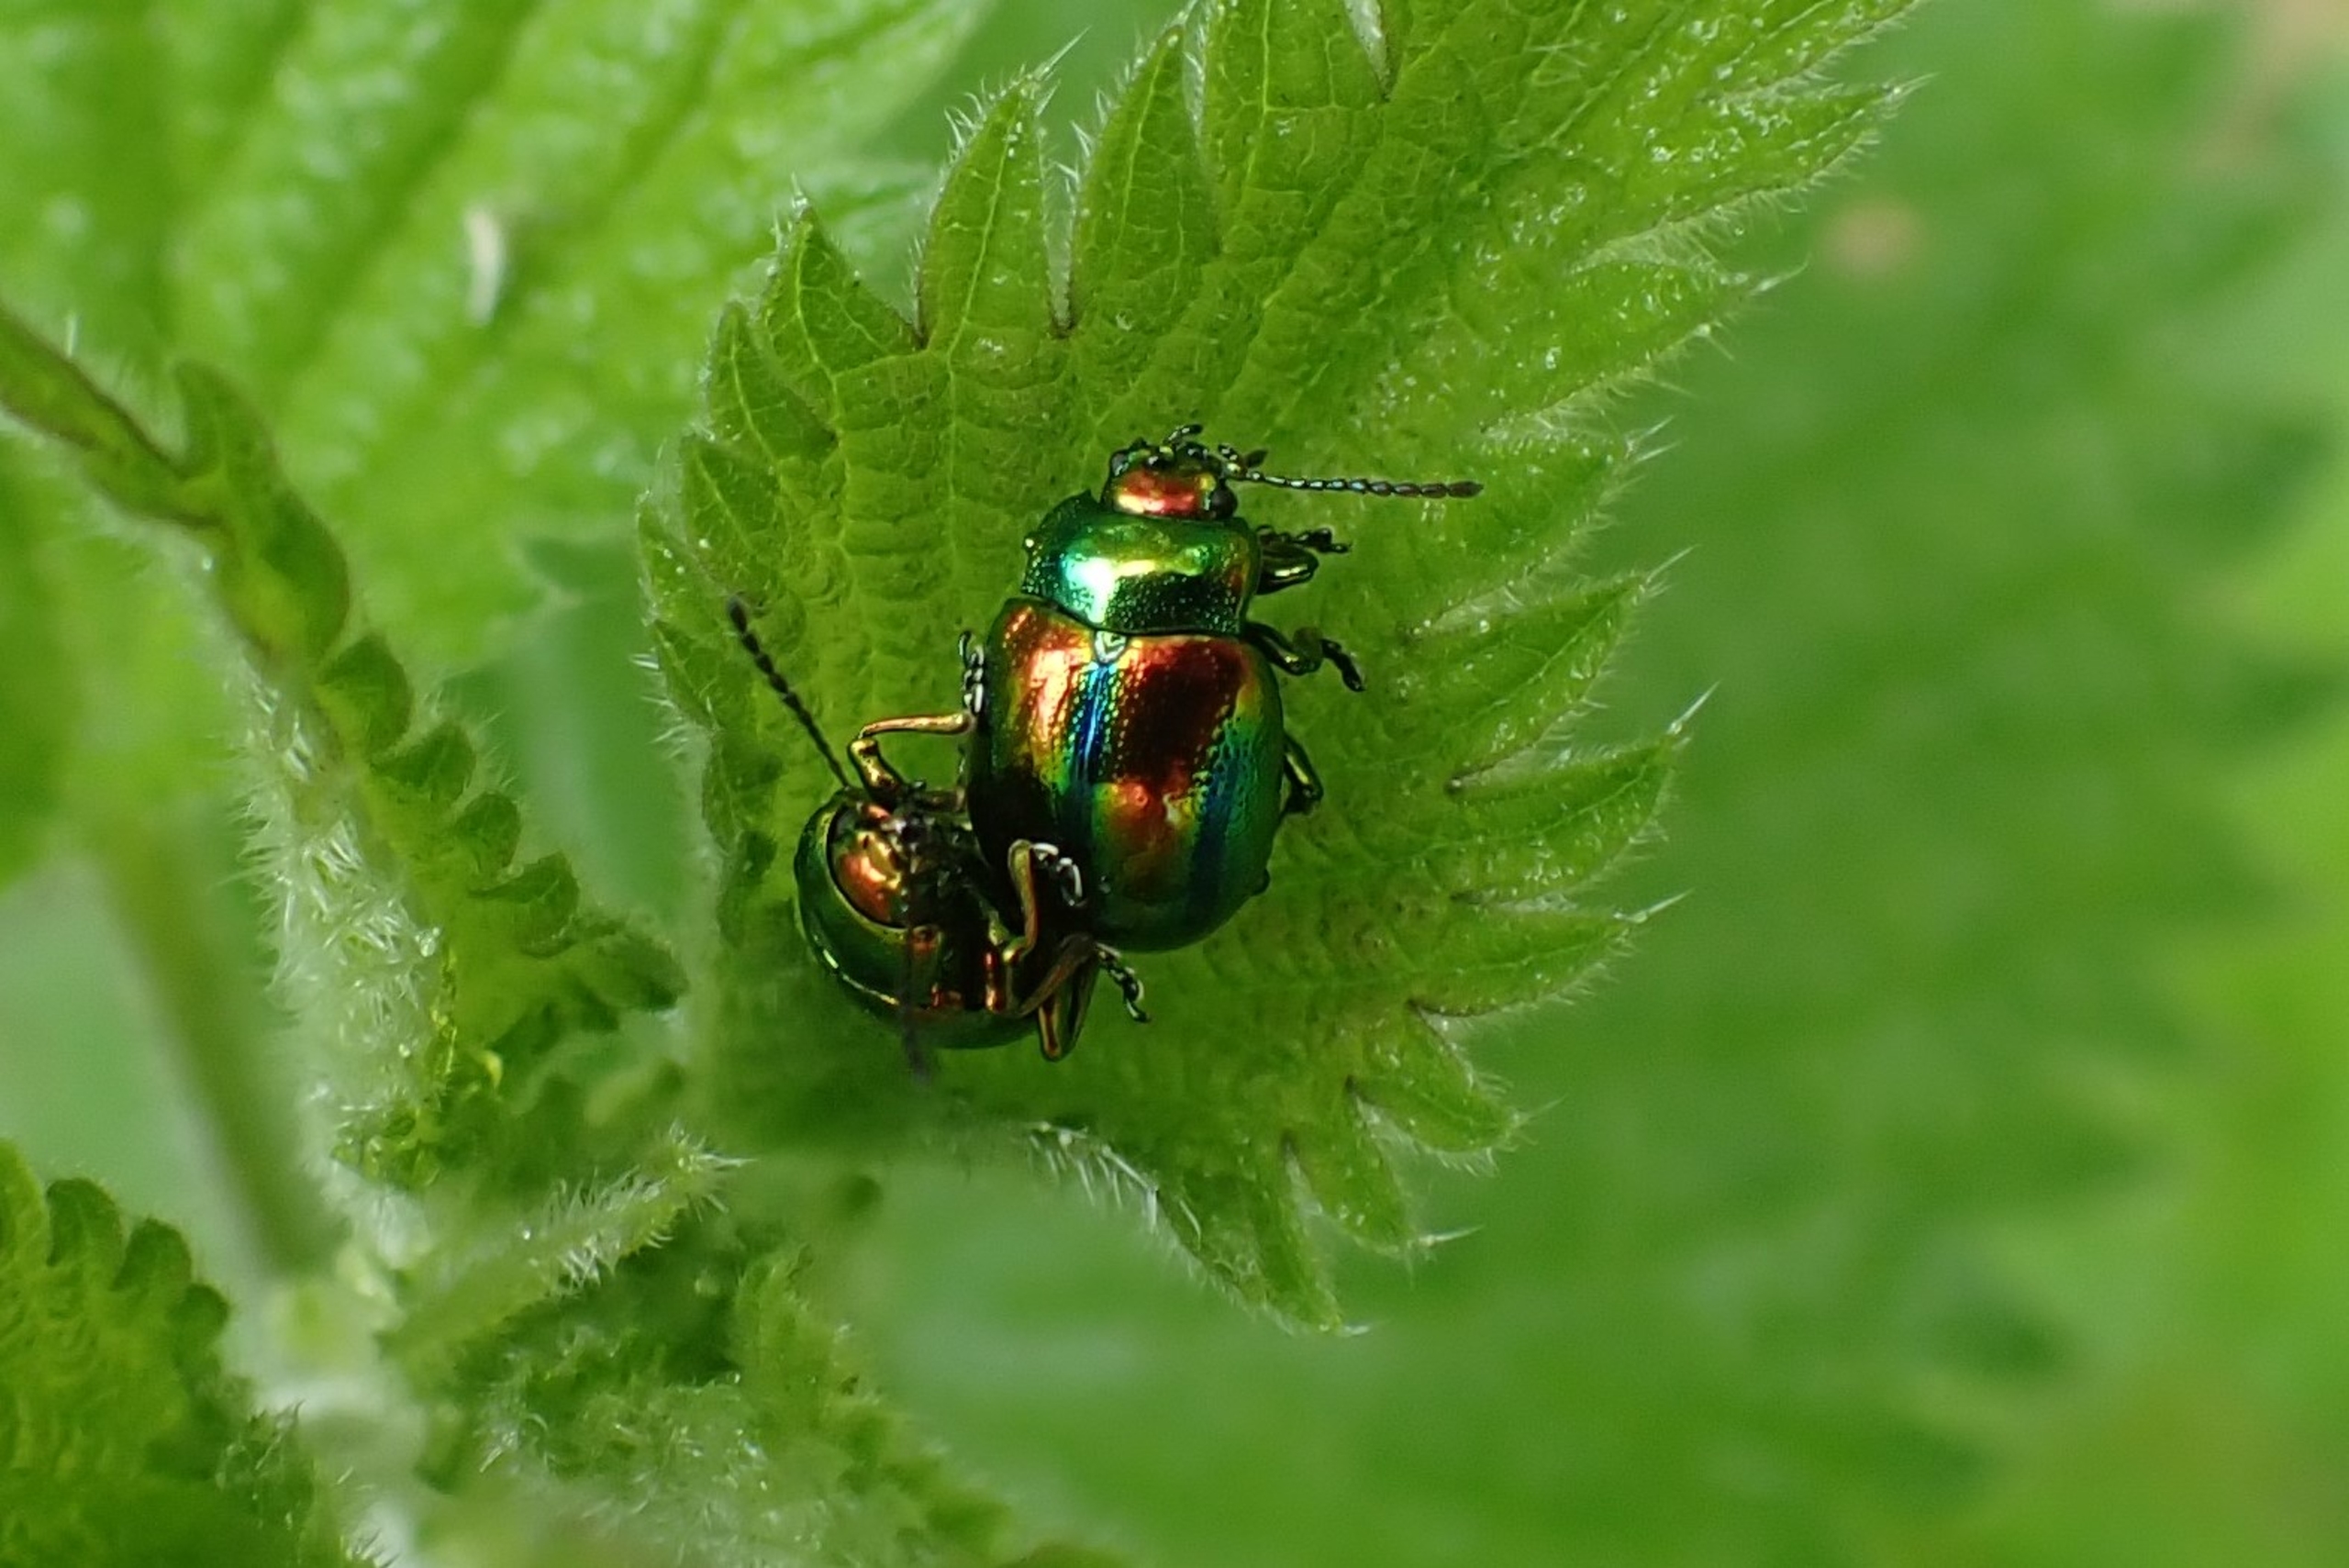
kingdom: Animalia
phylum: Arthropoda
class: Insecta
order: Coleoptera
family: Chrysomelidae
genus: Chrysolina
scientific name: Chrysolina fastuosa
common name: Tvetandbladbille
